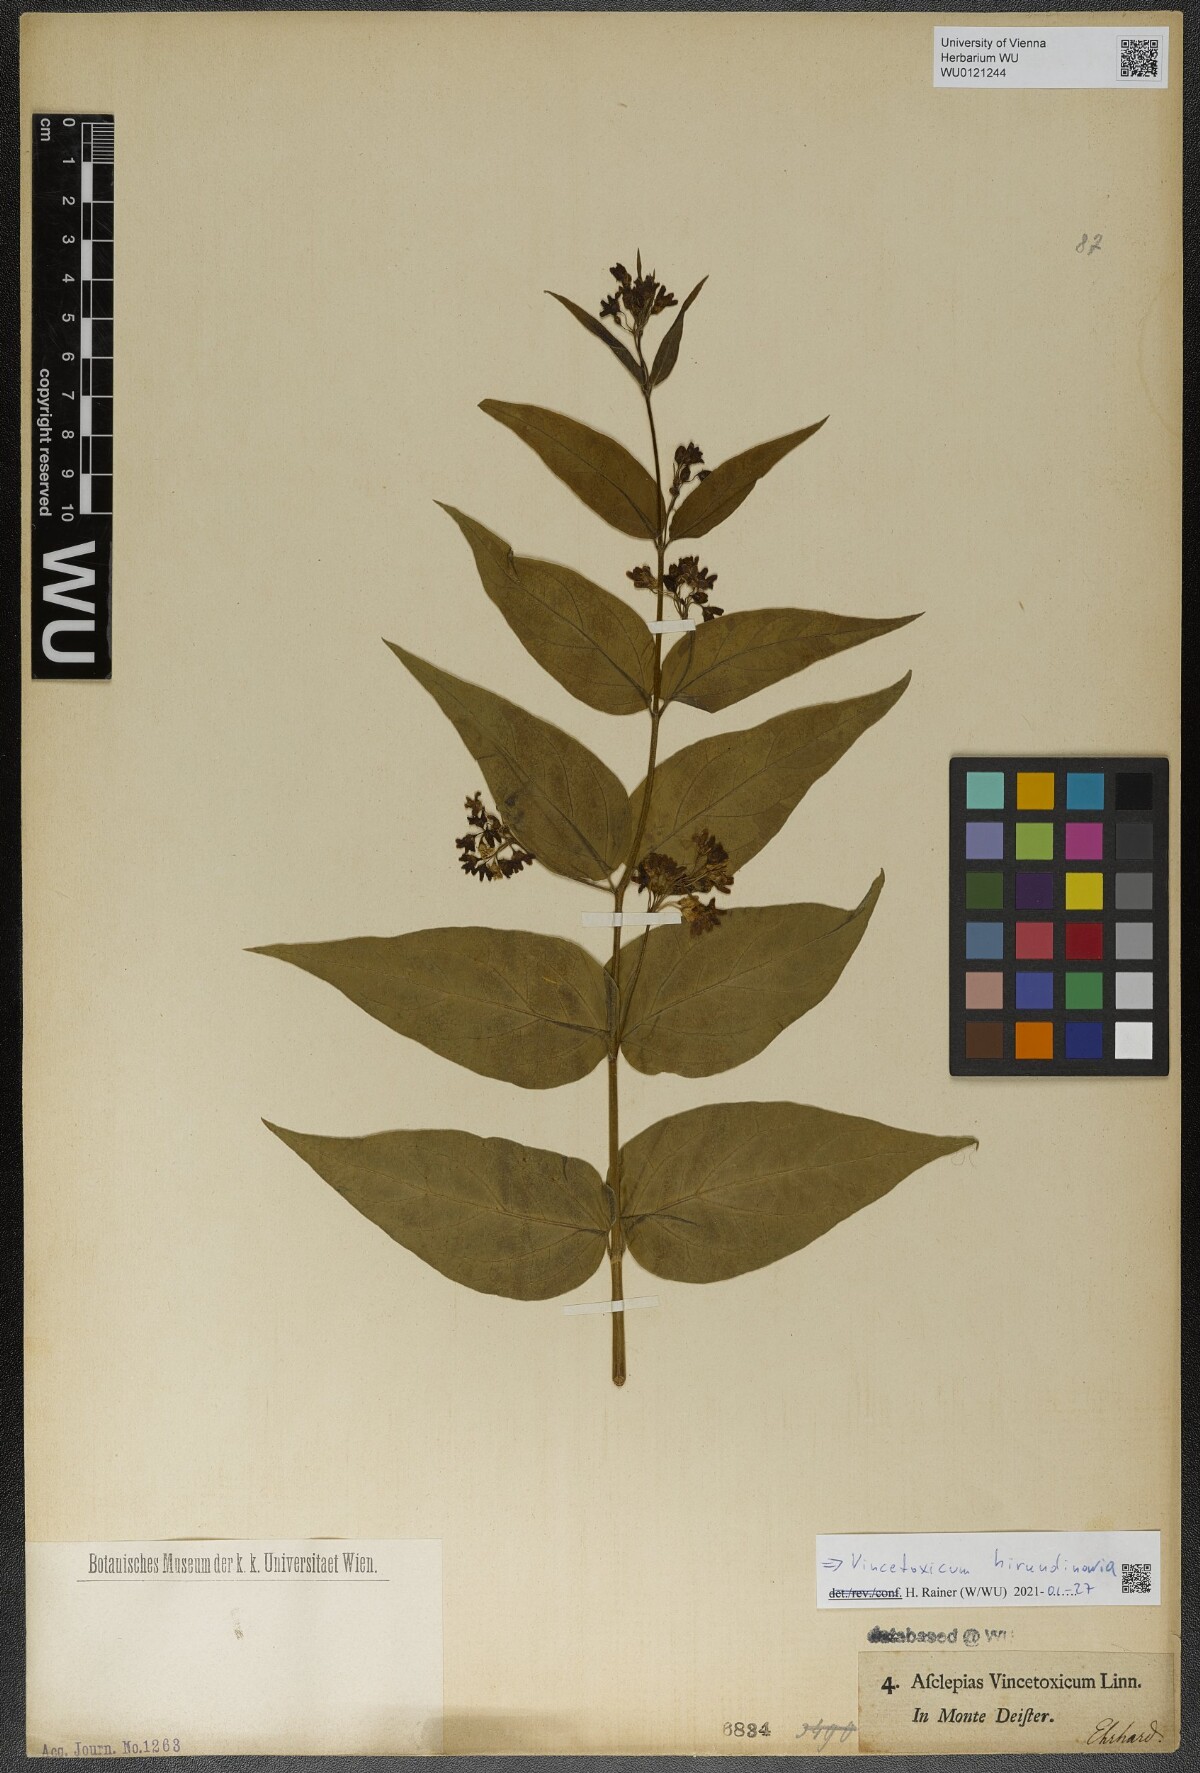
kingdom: Plantae
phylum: Tracheophyta
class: Magnoliopsida
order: Gentianales
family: Apocynaceae
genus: Vincetoxicum
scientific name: Vincetoxicum hirundinaria
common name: White swallowwort
